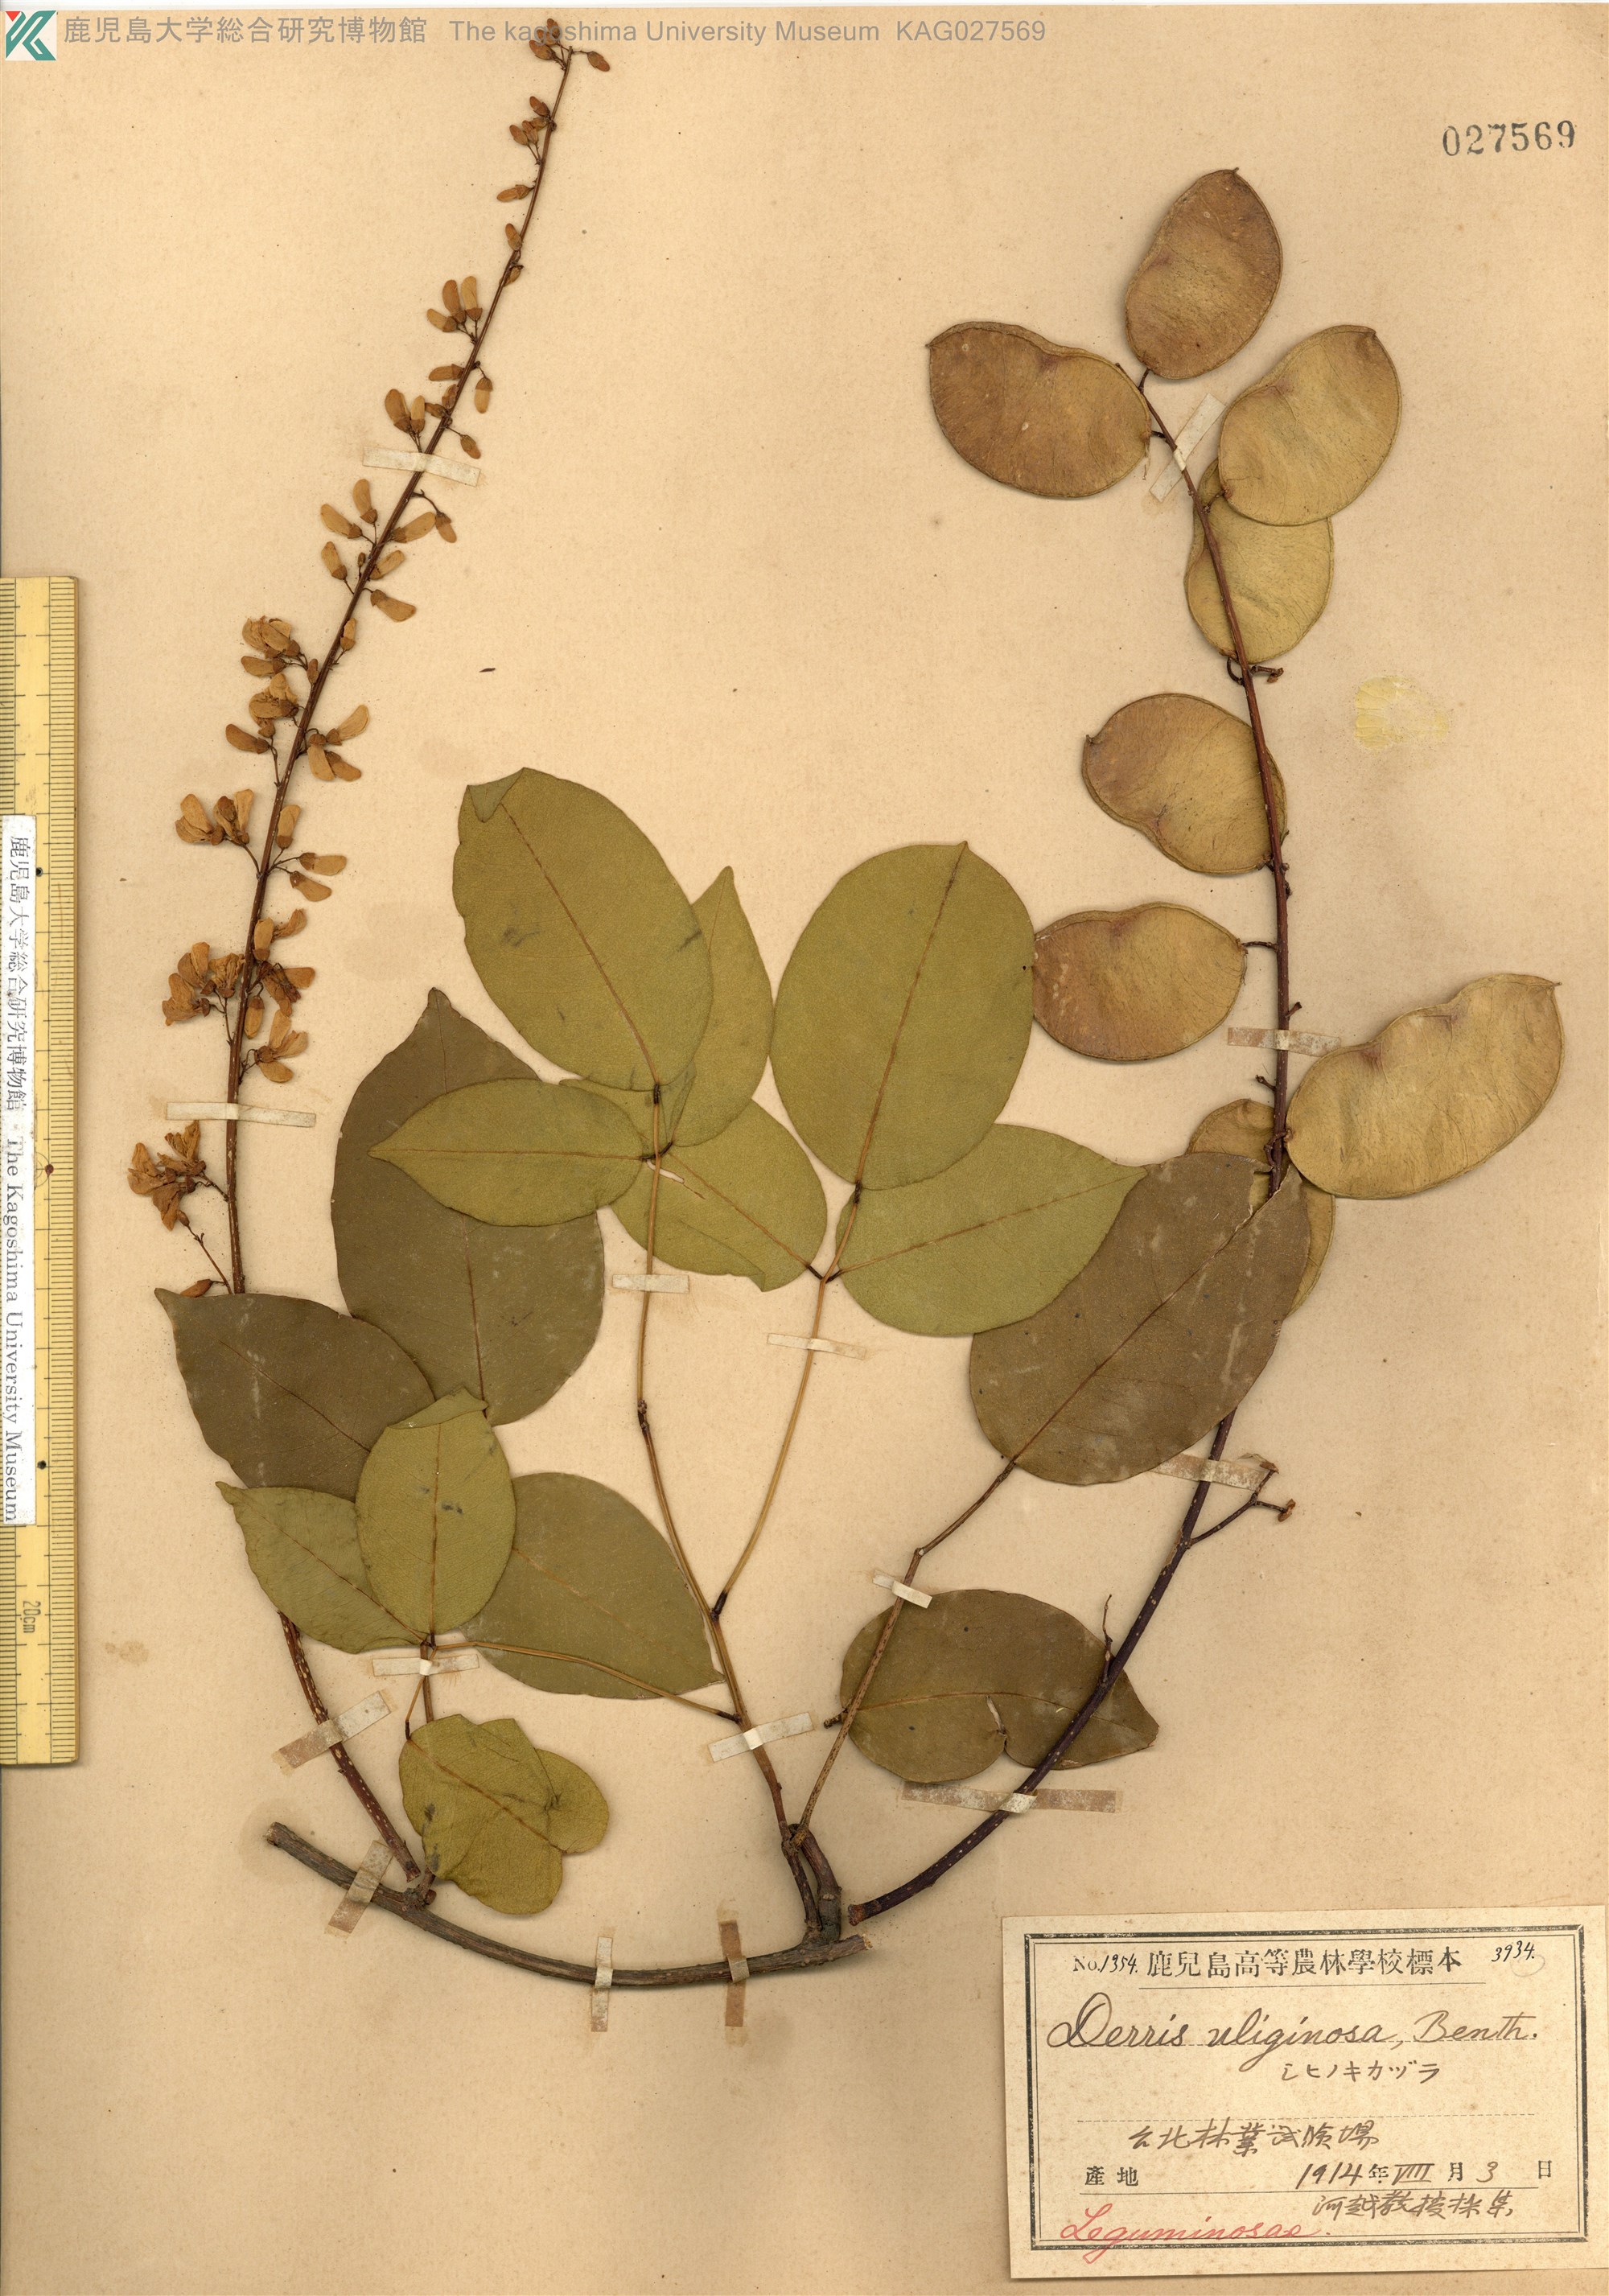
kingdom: Plantae
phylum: Tracheophyta
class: Magnoliopsida
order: Fabales
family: Fabaceae
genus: Derris
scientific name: Derris trifoliata
